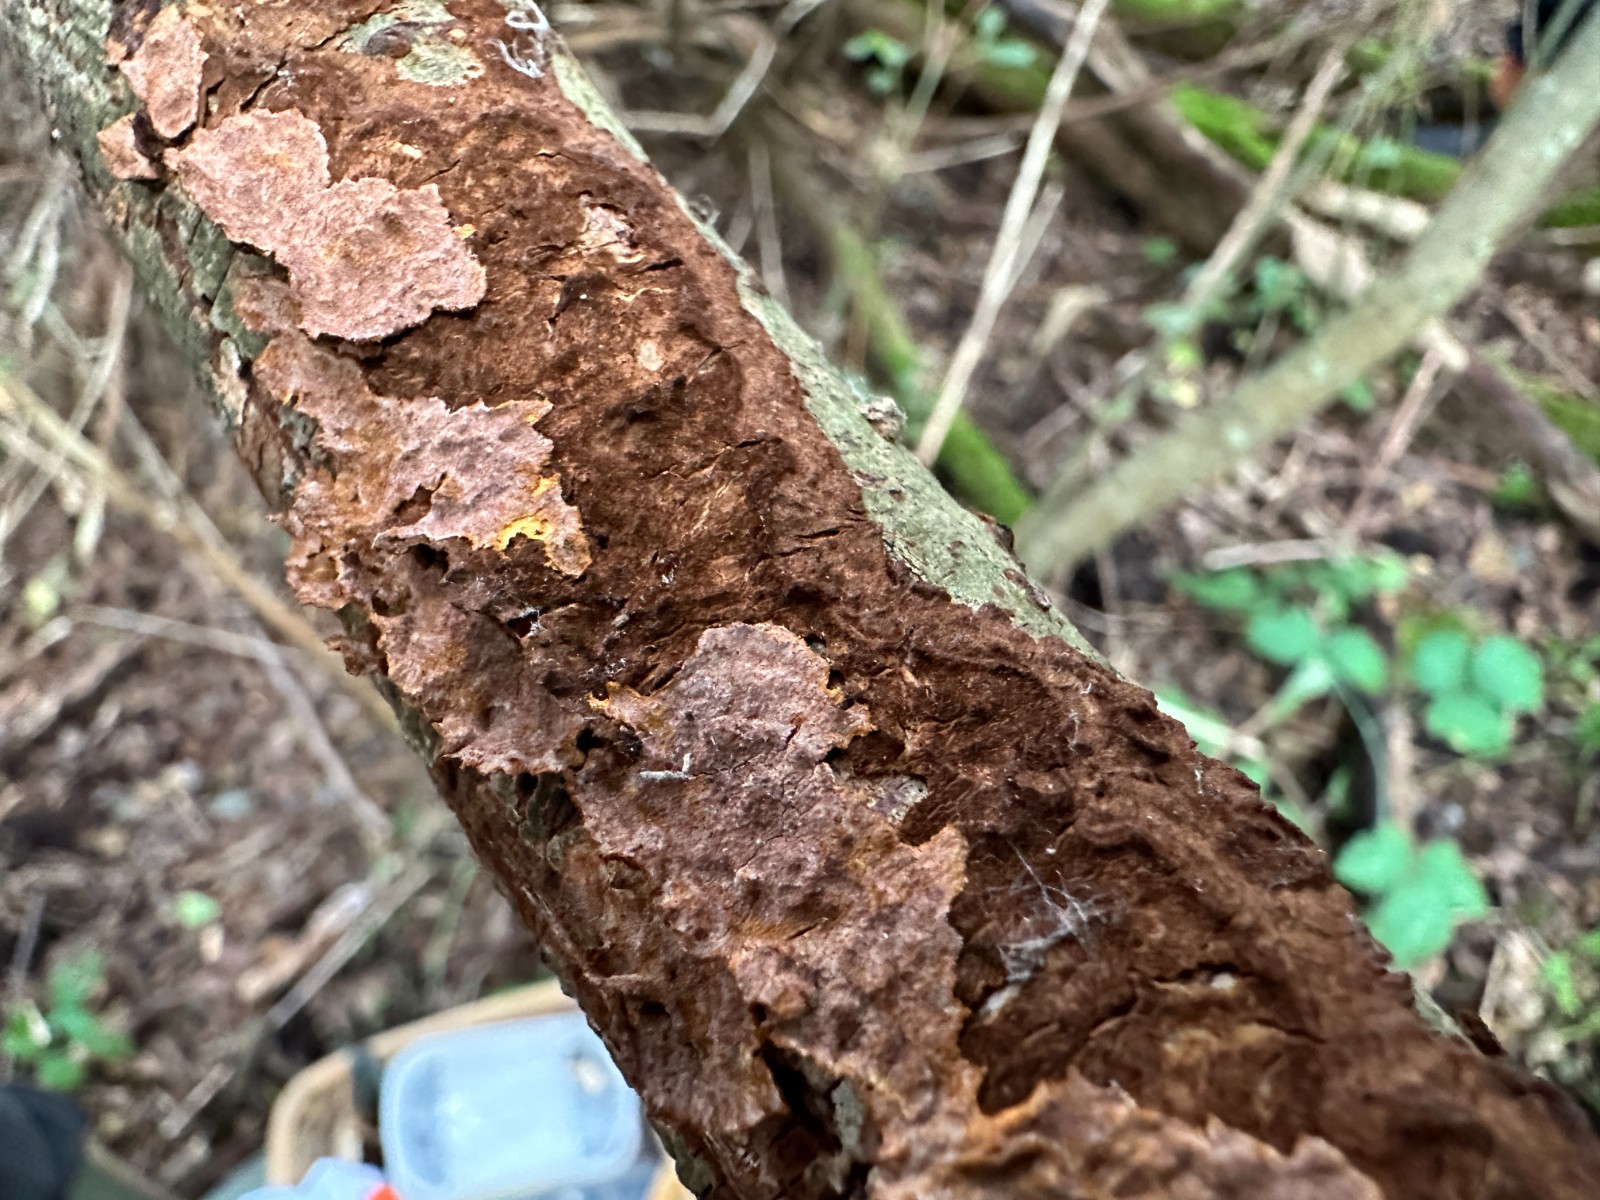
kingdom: Fungi
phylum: Basidiomycota
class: Agaricomycetes
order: Hymenochaetales
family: Hymenochaetaceae
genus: Hydnoporia
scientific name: Hydnoporia tabacina
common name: tobaksbrun ruslædersvamp
